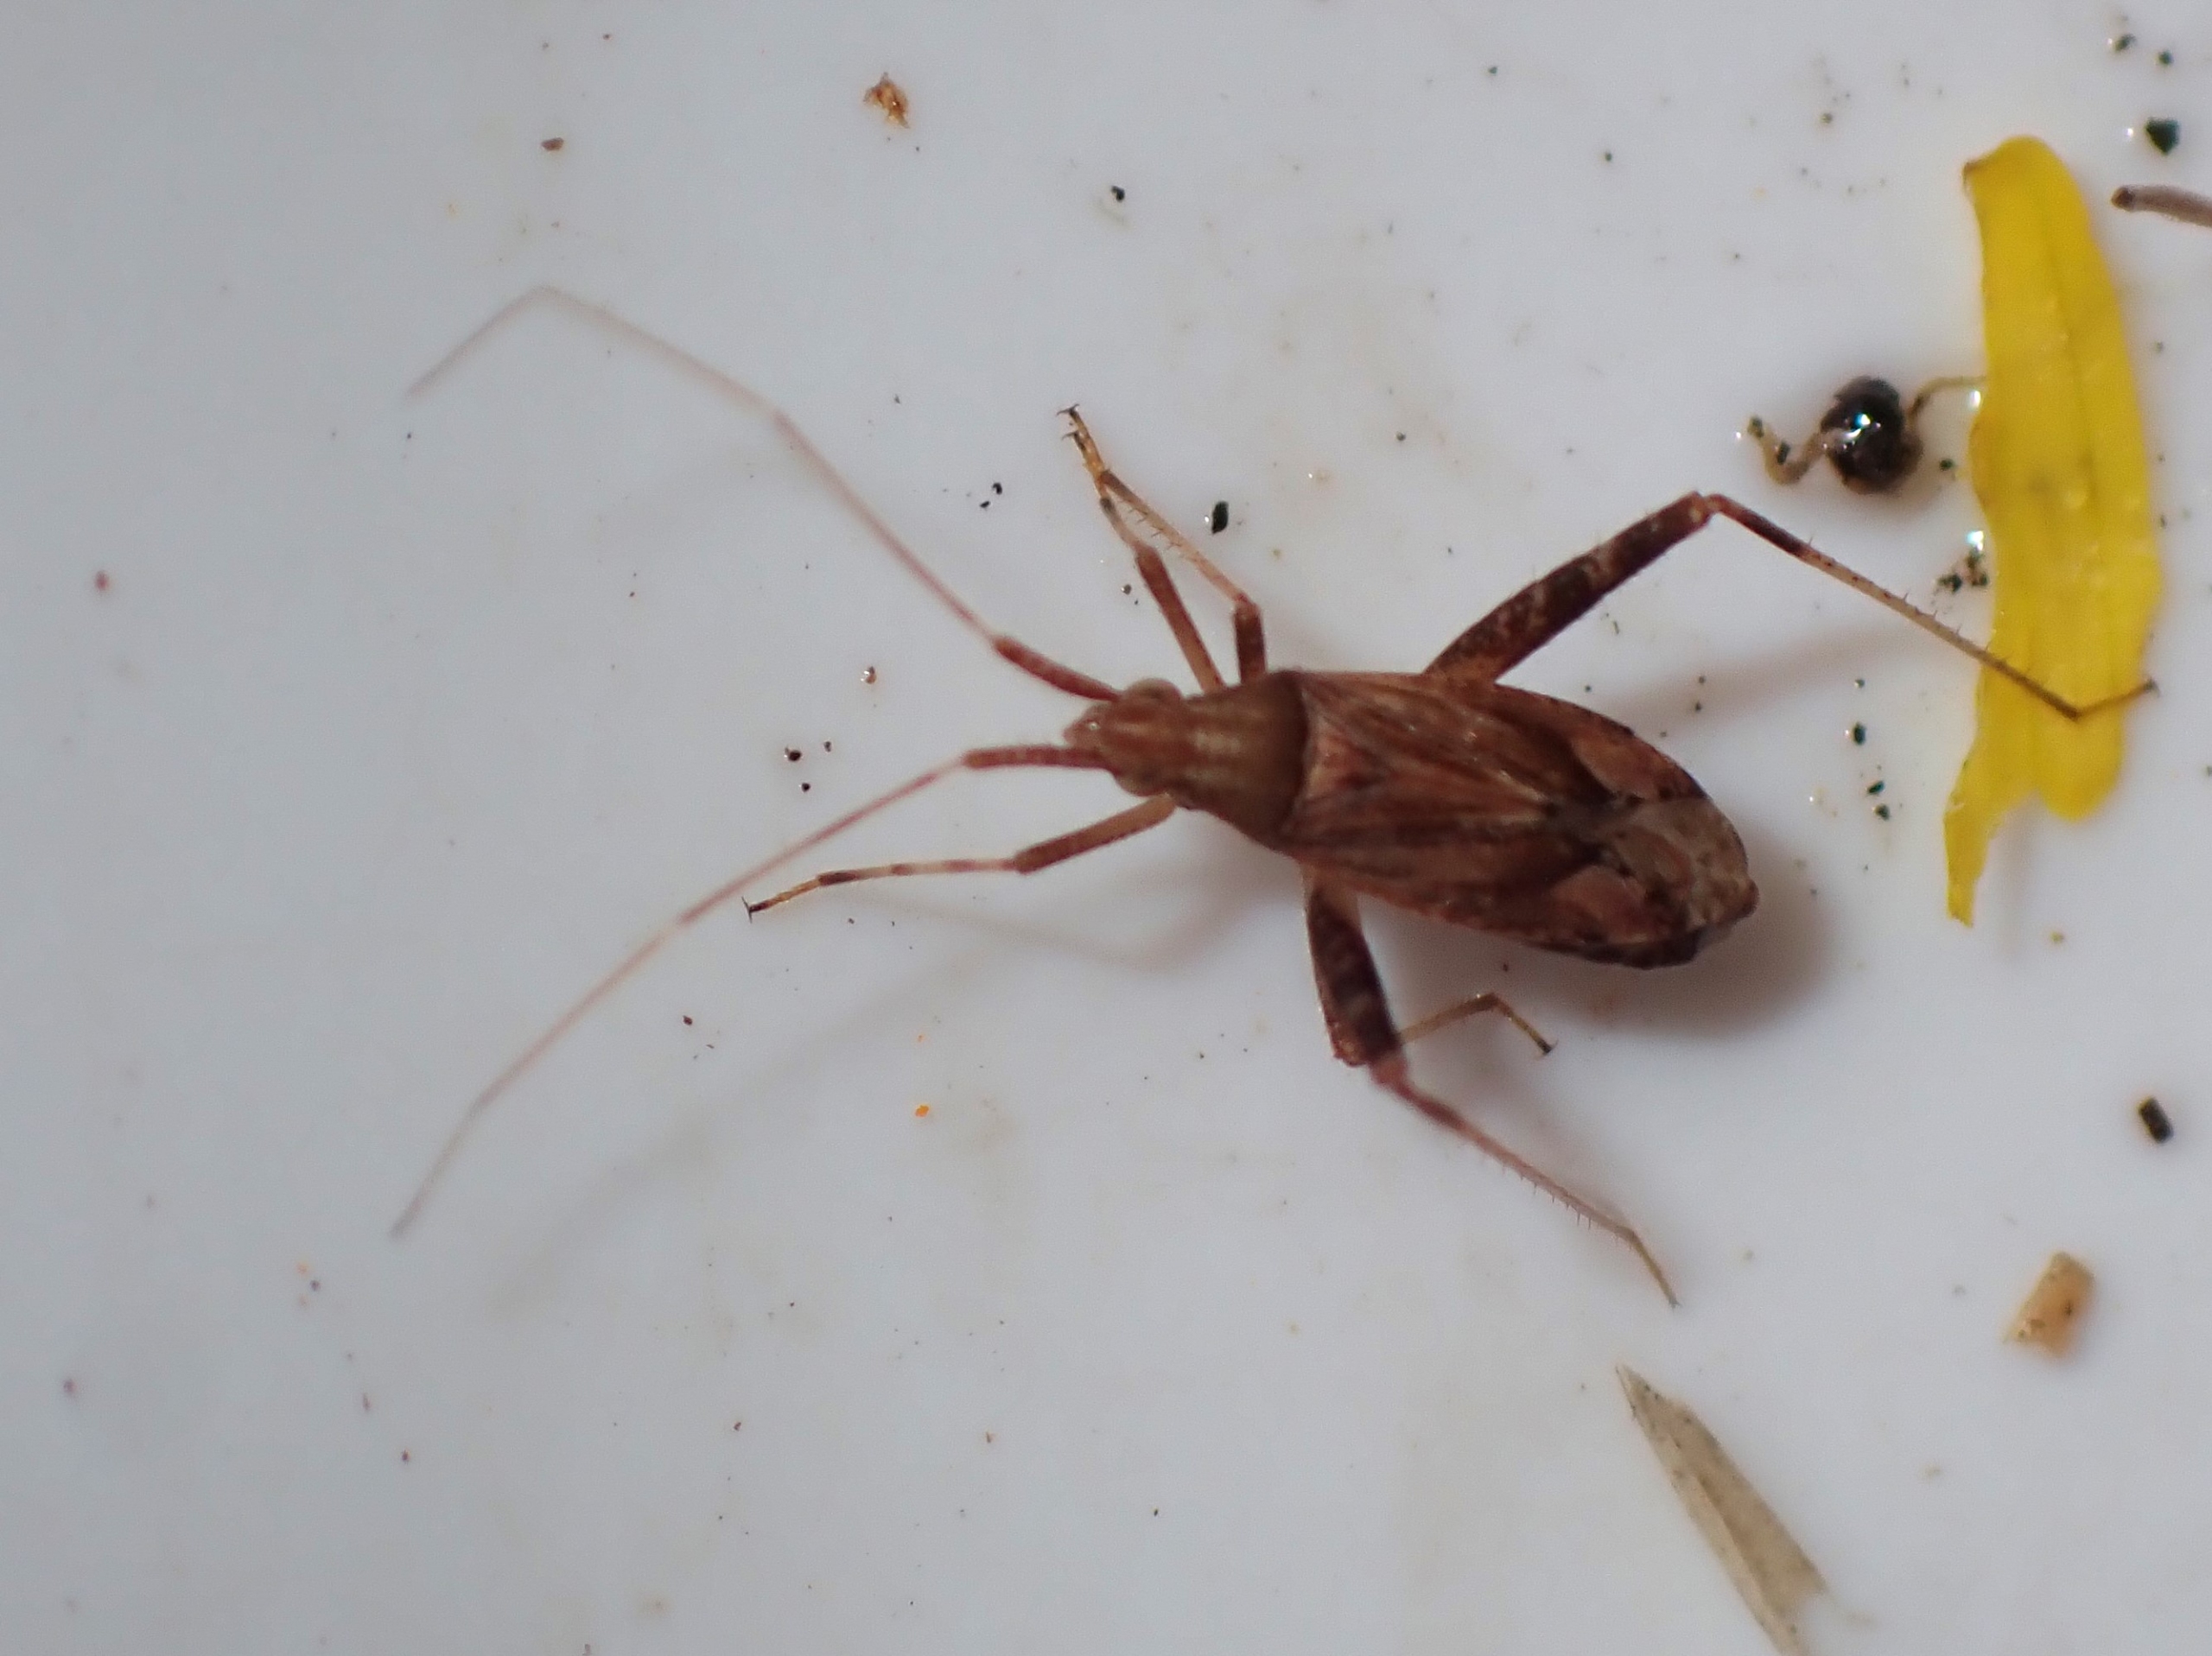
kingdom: Animalia
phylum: Arthropoda
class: Insecta
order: Hemiptera
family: Miridae
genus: Phytocoris
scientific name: Phytocoris varipes
